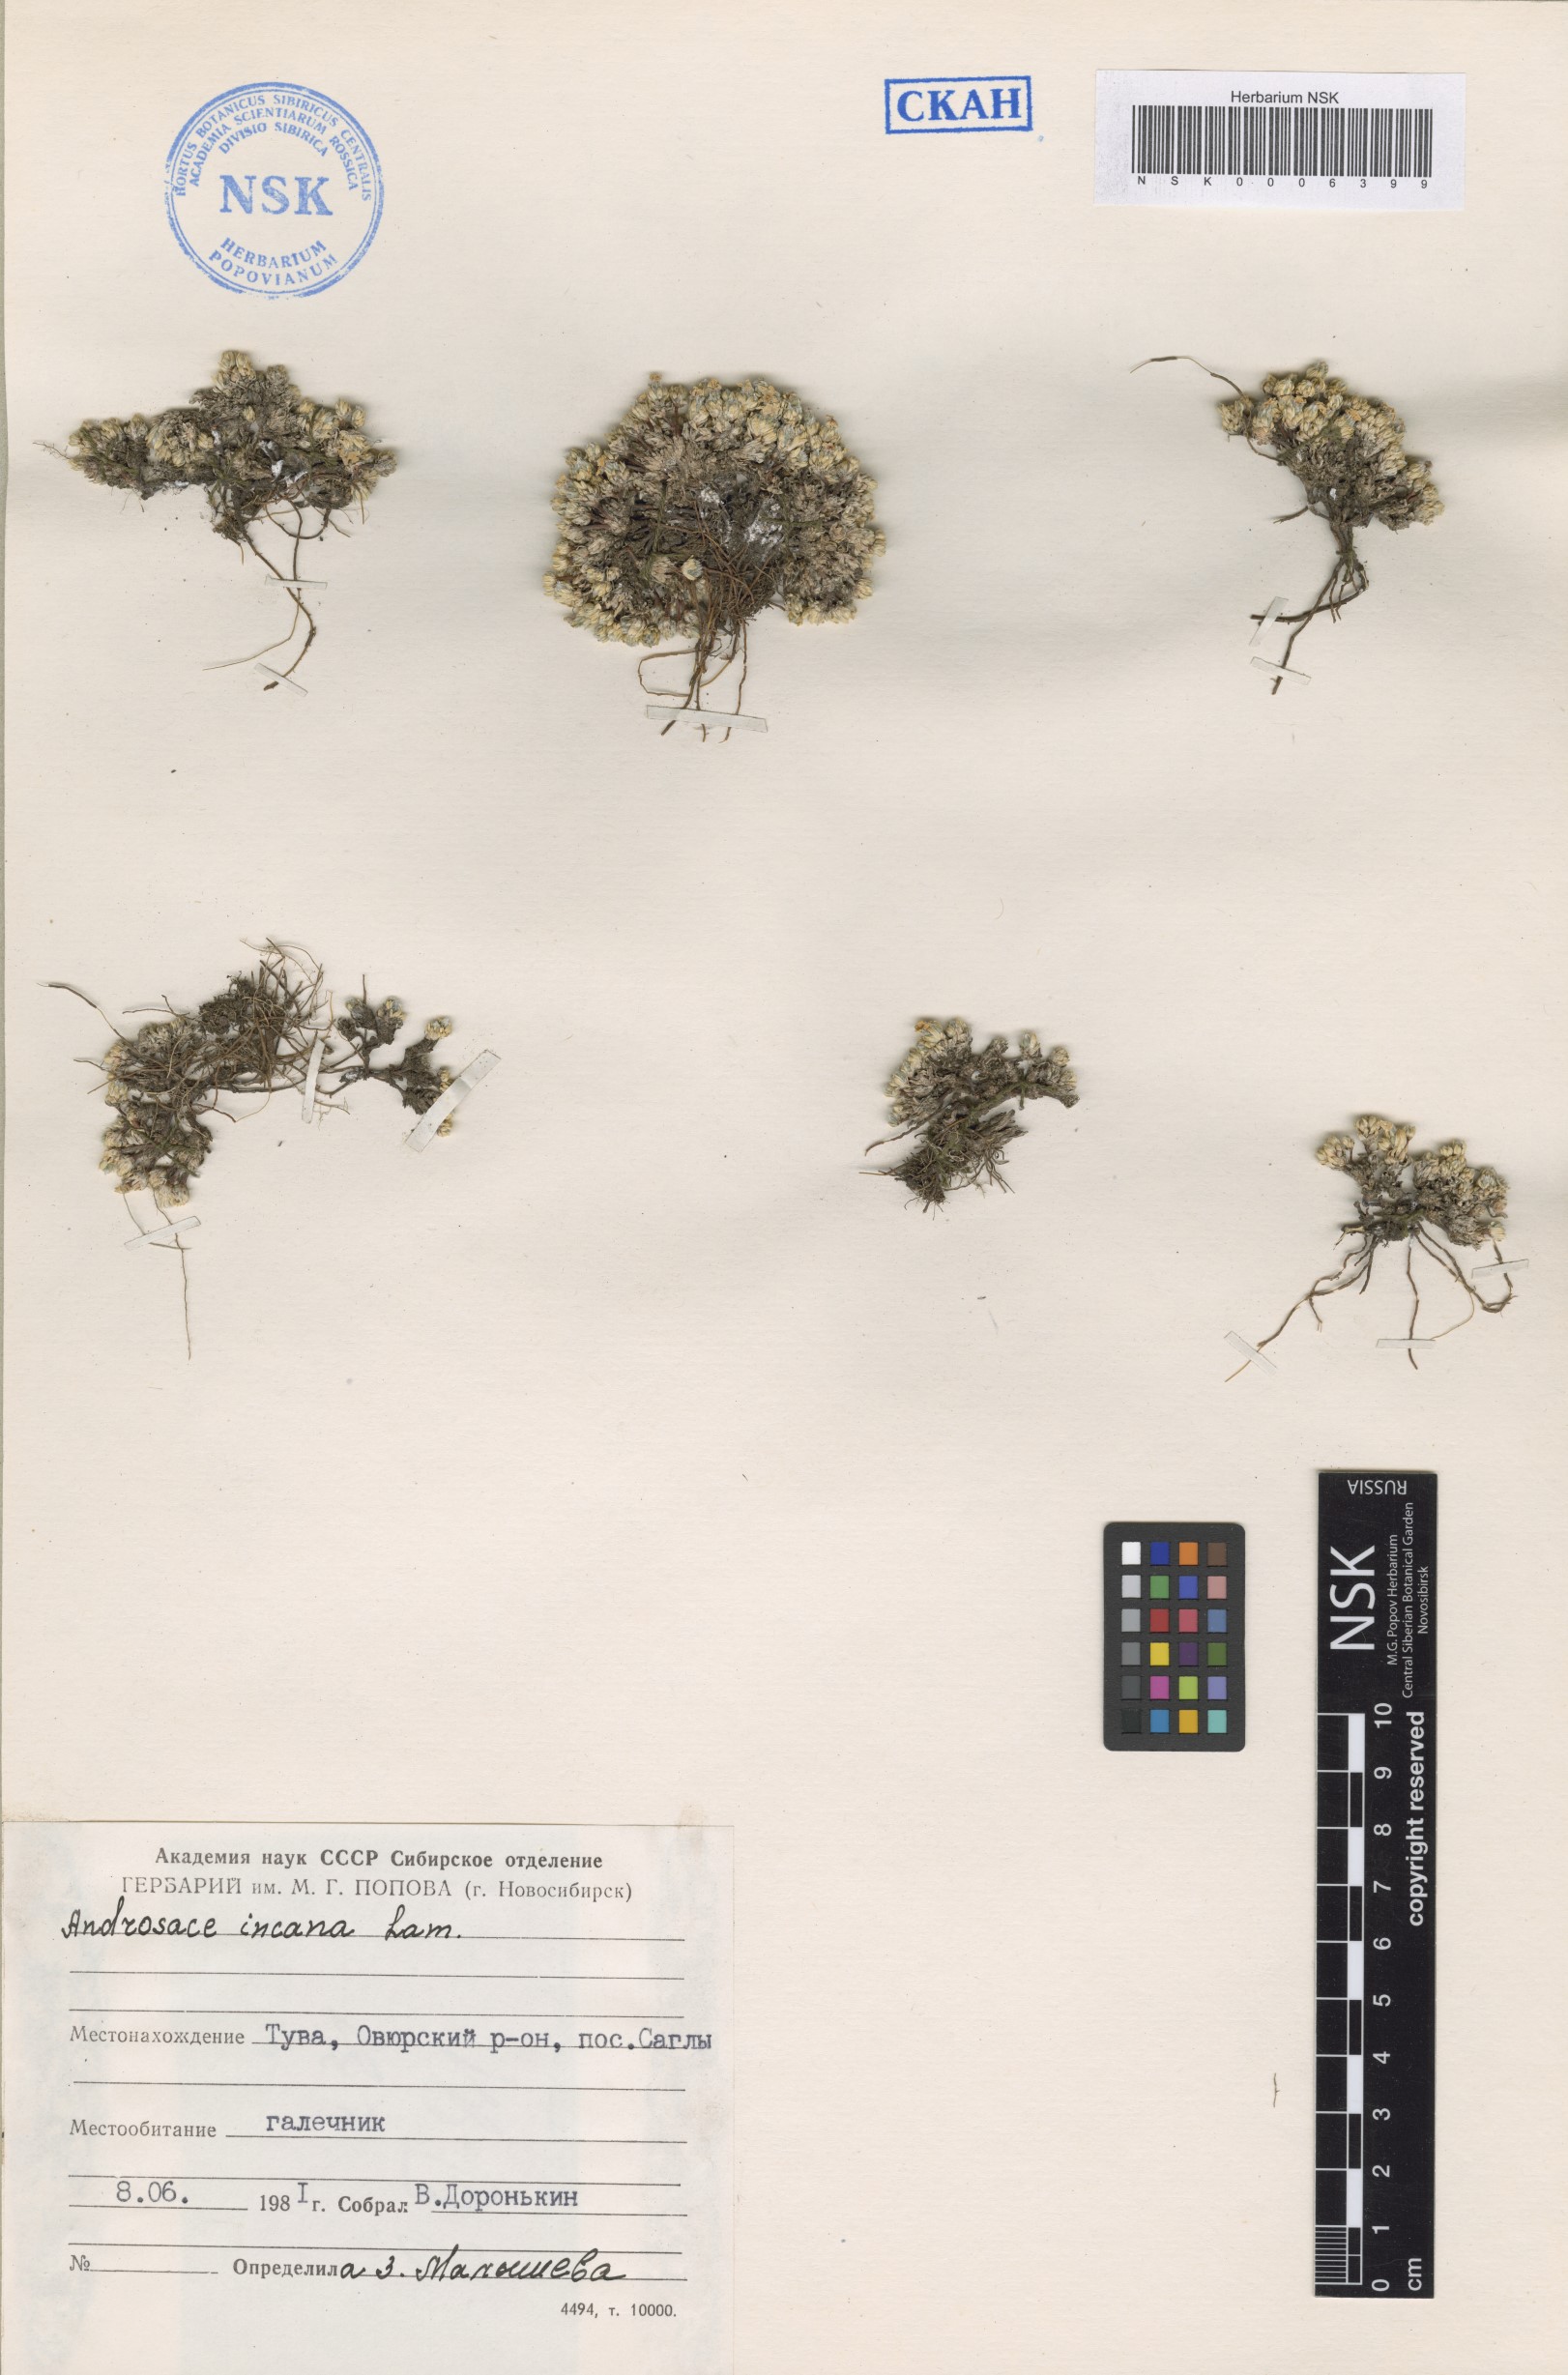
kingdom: Plantae
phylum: Tracheophyta
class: Magnoliopsida
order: Ericales
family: Primulaceae
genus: Androsace
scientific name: Androsace incana
